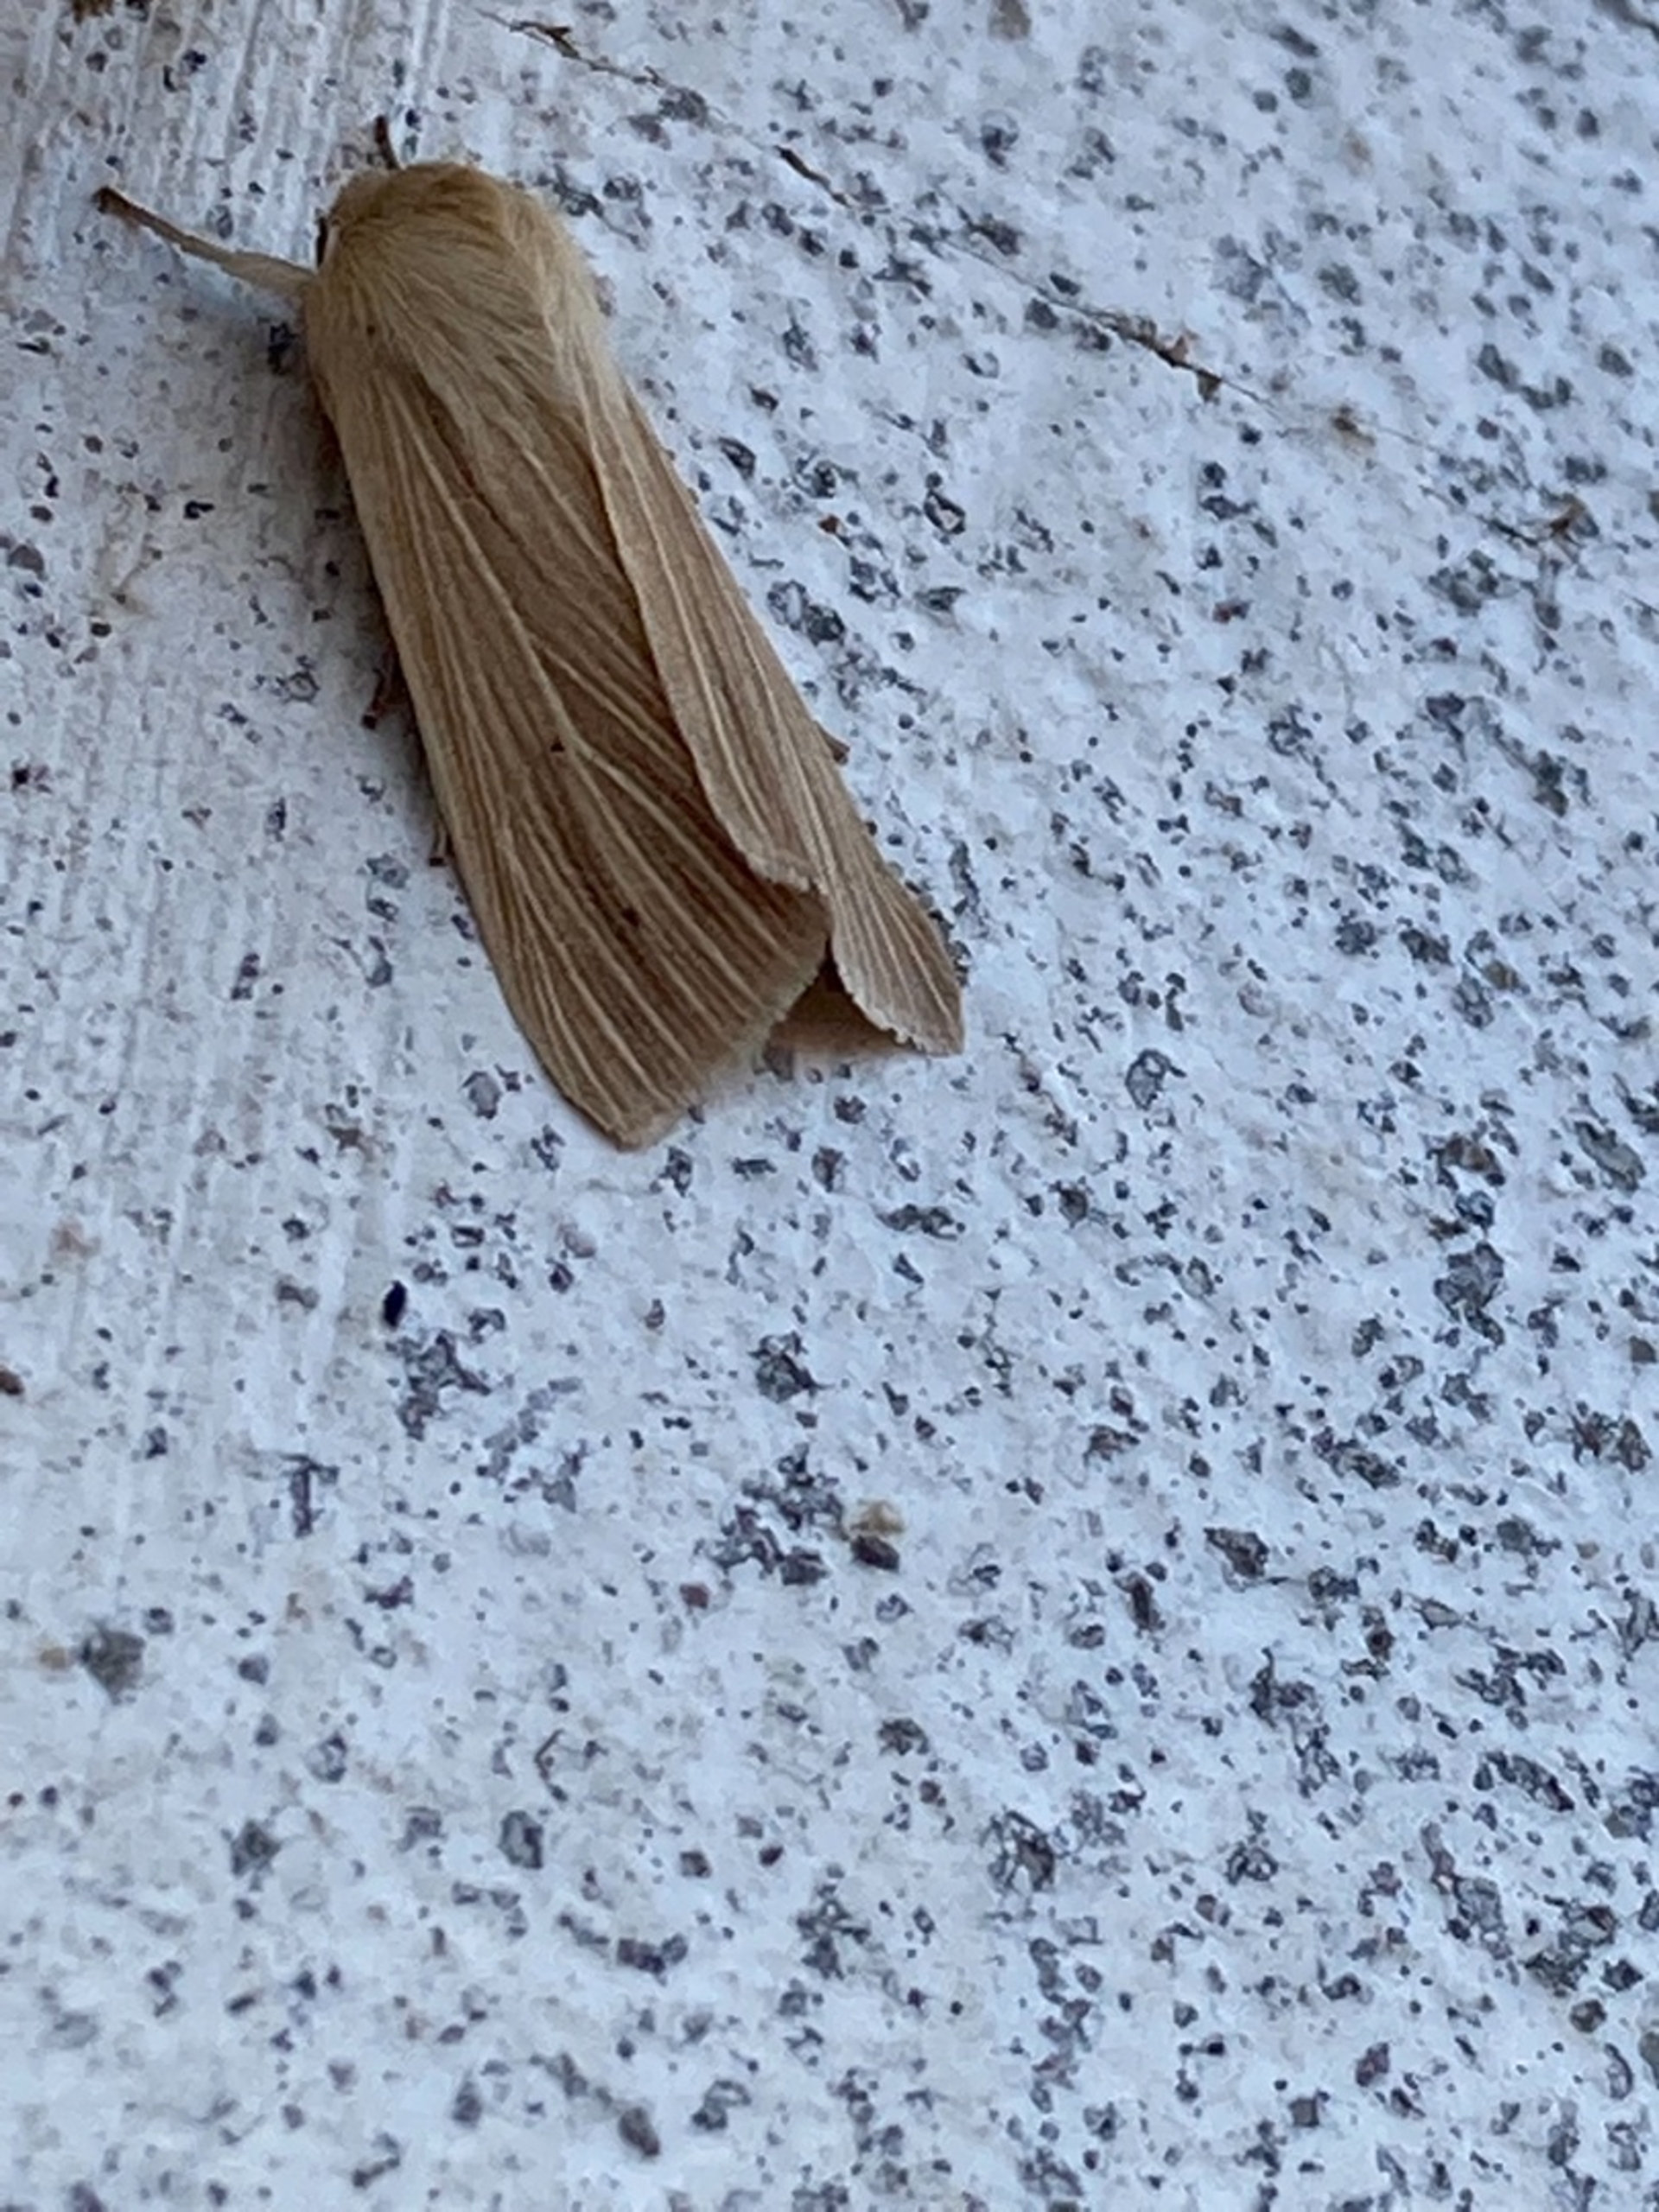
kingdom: Animalia
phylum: Arthropoda
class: Insecta
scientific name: Insecta
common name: Insekter
